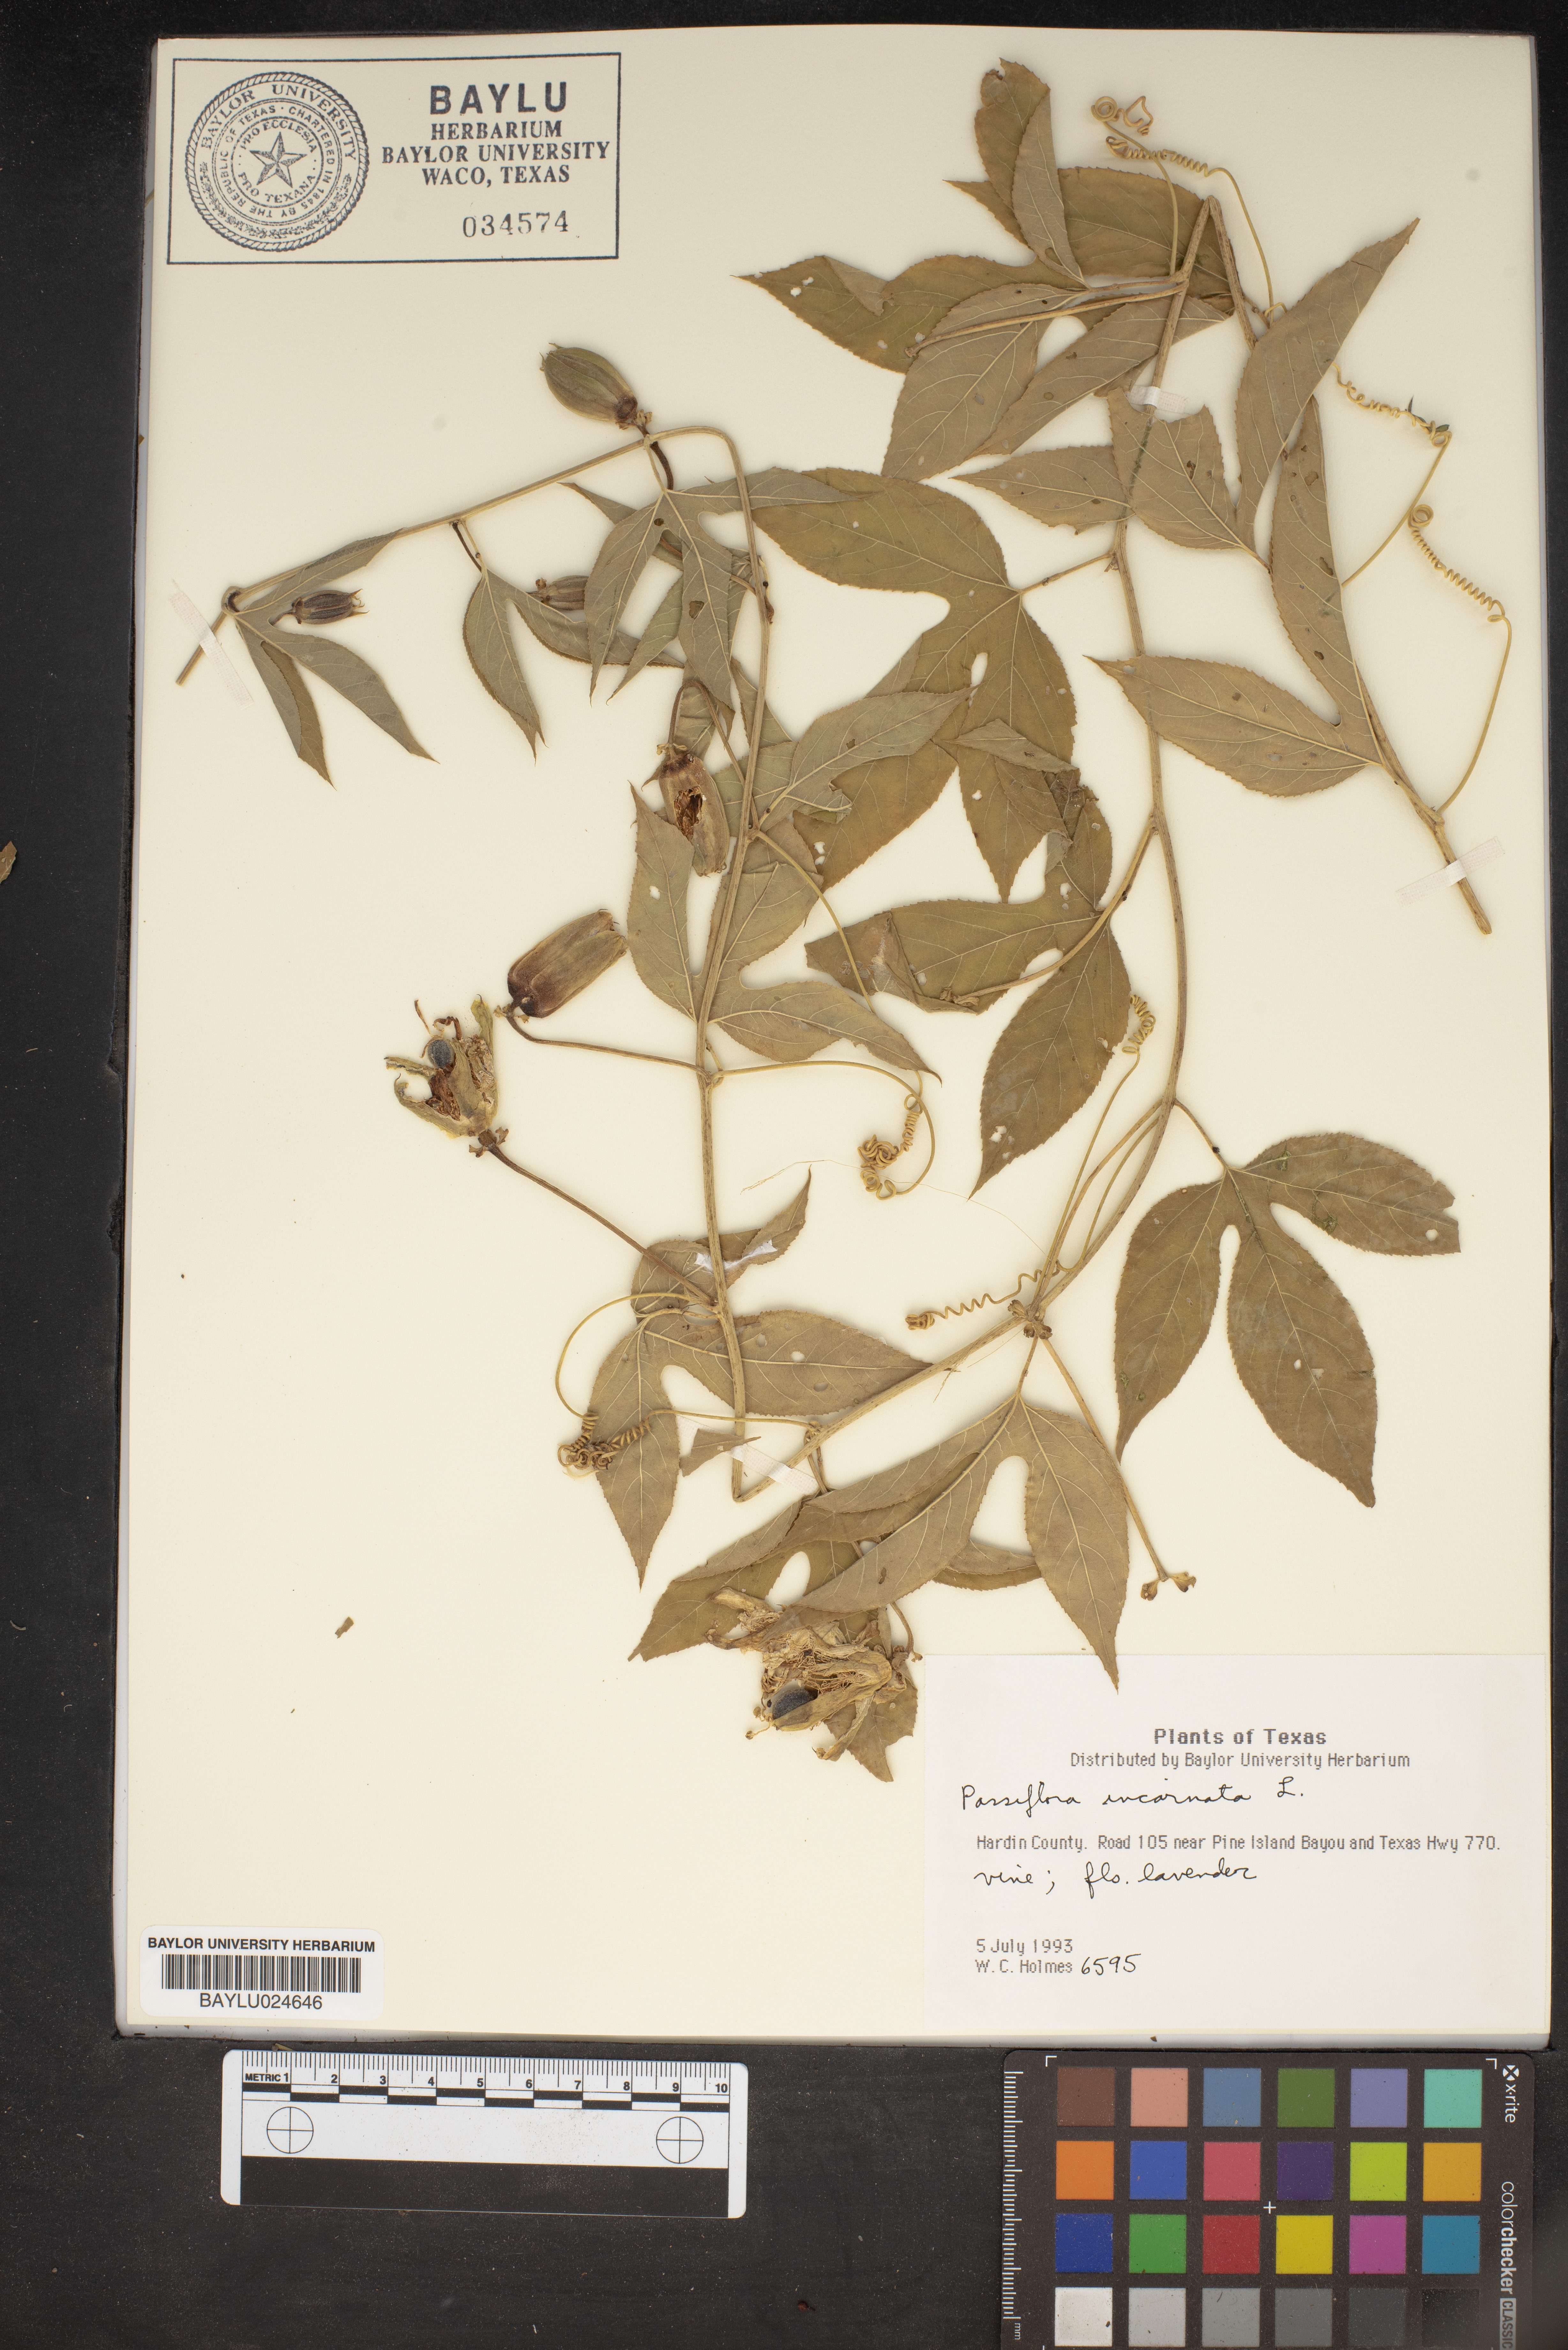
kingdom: Plantae
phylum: Tracheophyta
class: Magnoliopsida
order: Malpighiales
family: Passifloraceae
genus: Passiflora
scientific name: Passiflora incarnata
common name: Apricot-vine
